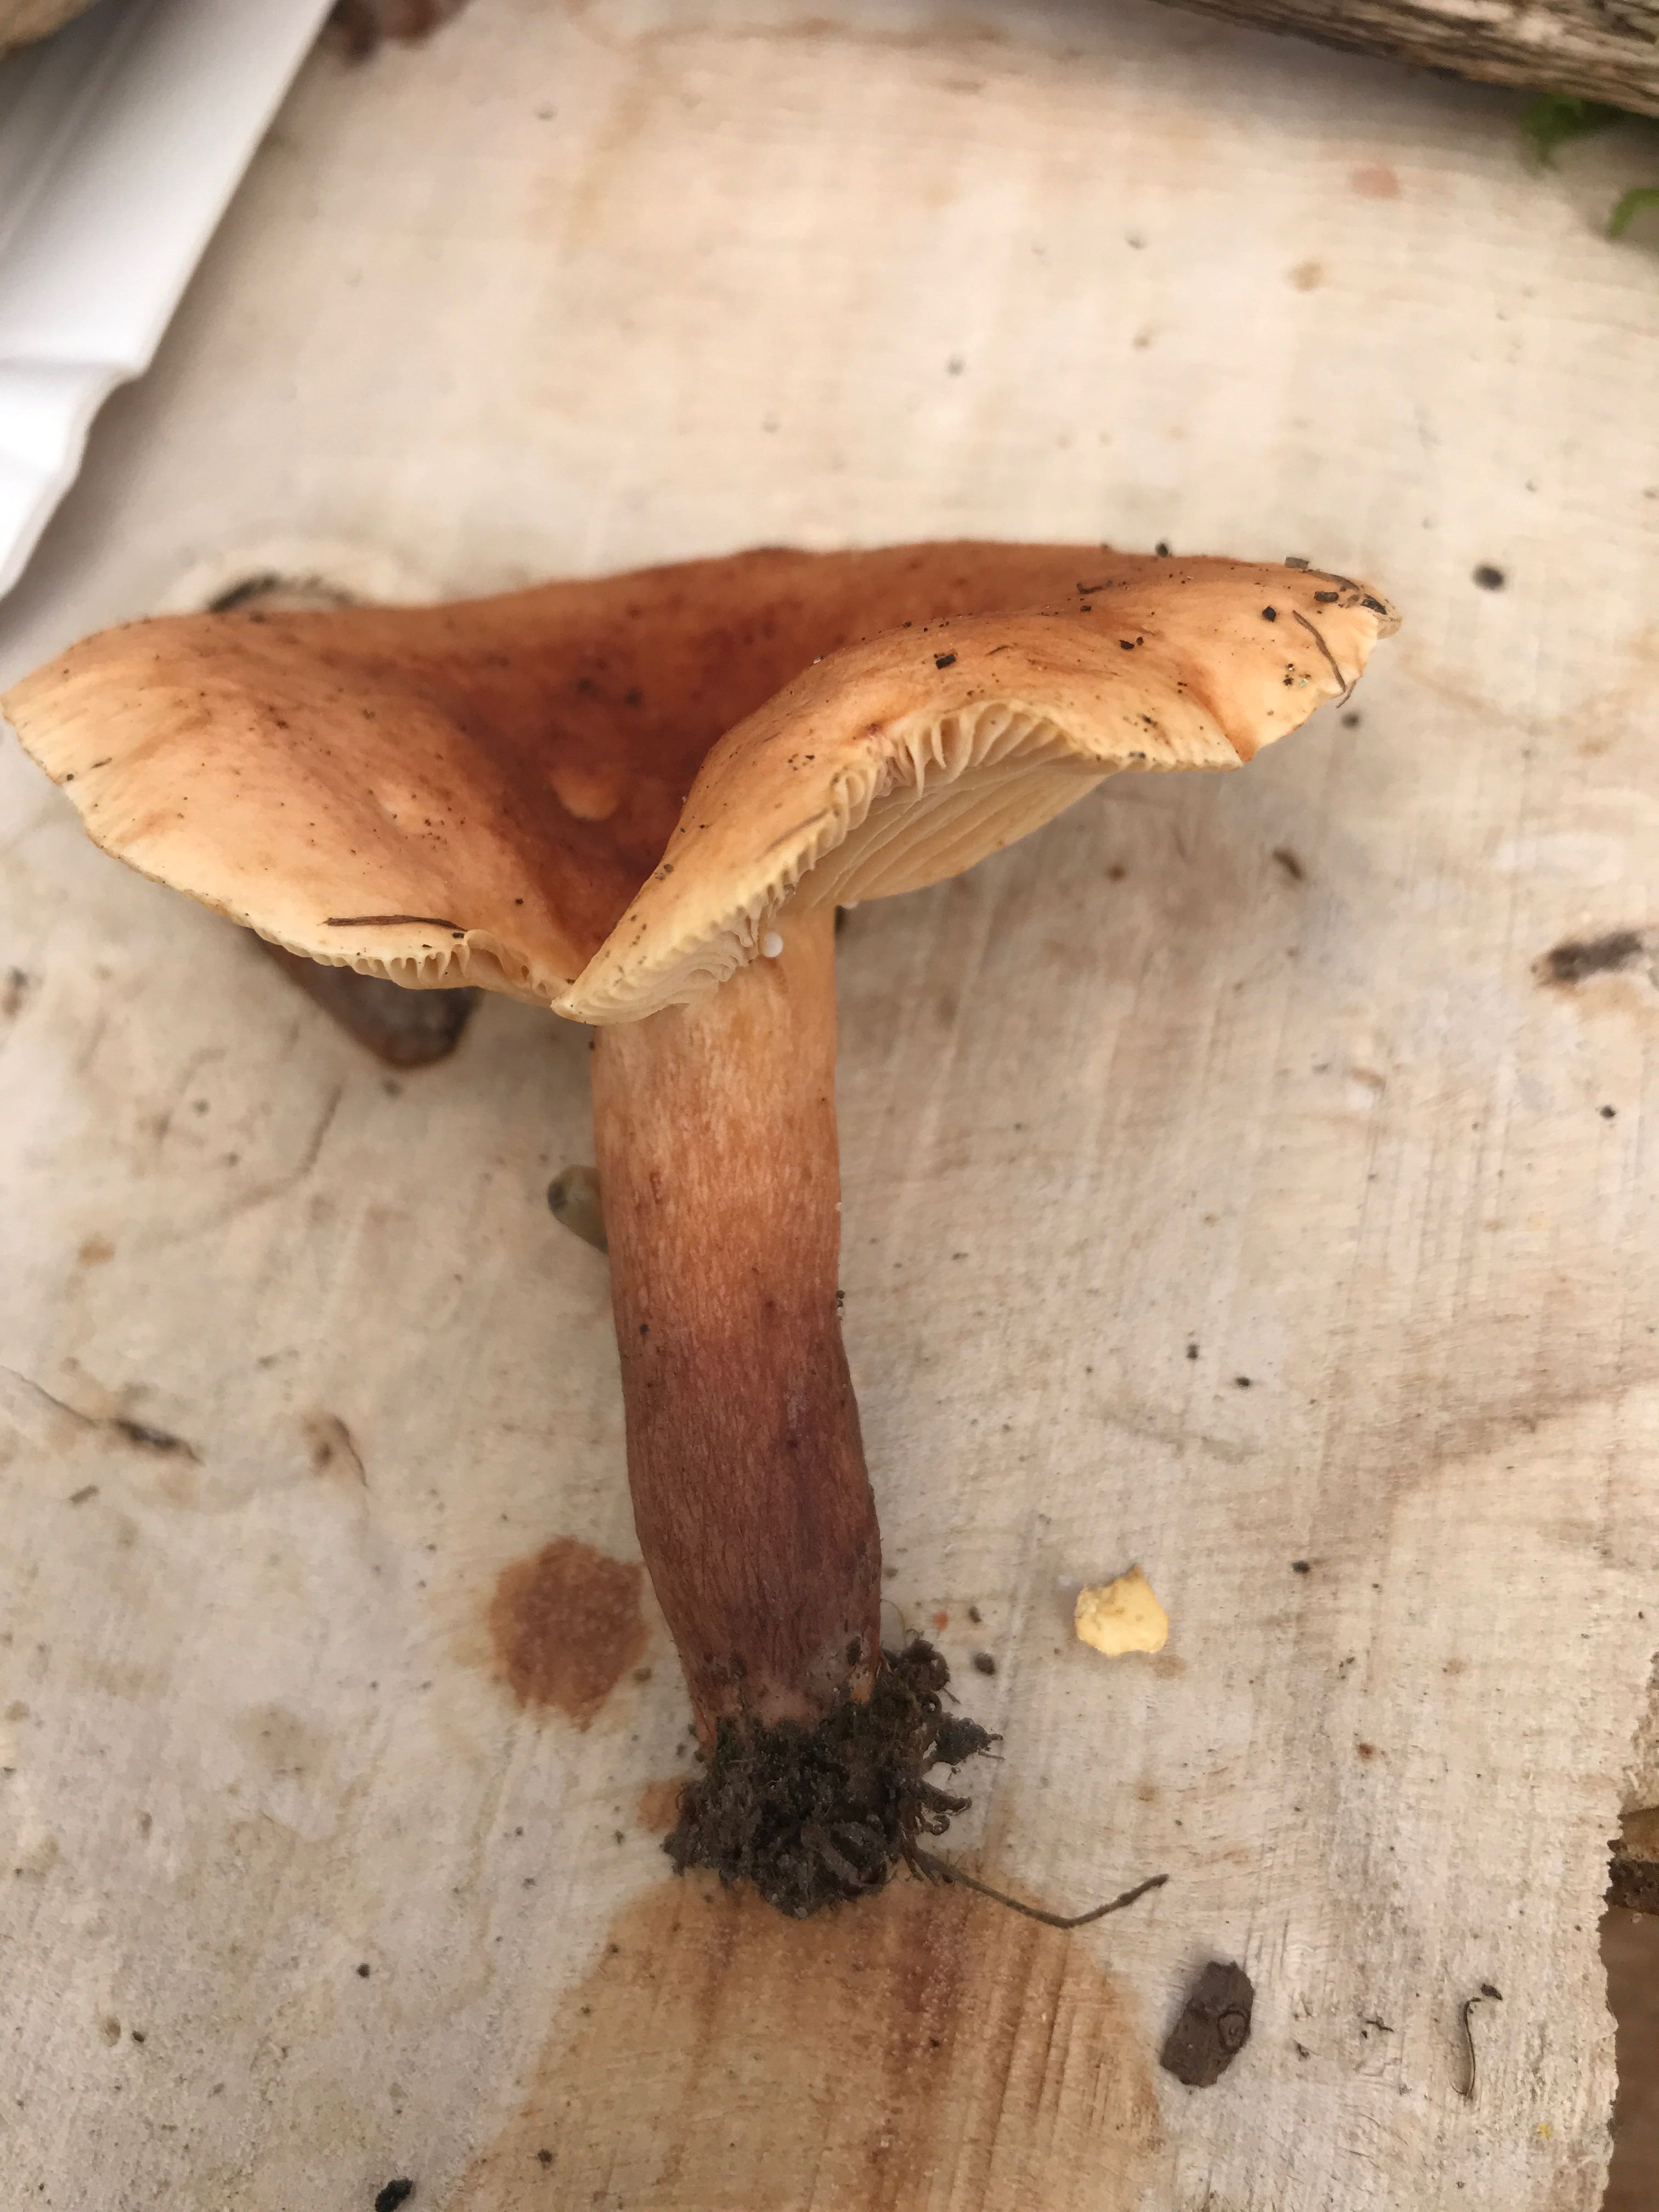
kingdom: Fungi
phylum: Basidiomycota
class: Agaricomycetes
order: Russulales
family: Russulaceae
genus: Lactarius
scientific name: Lactarius tabidus
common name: rynket mælkehat
